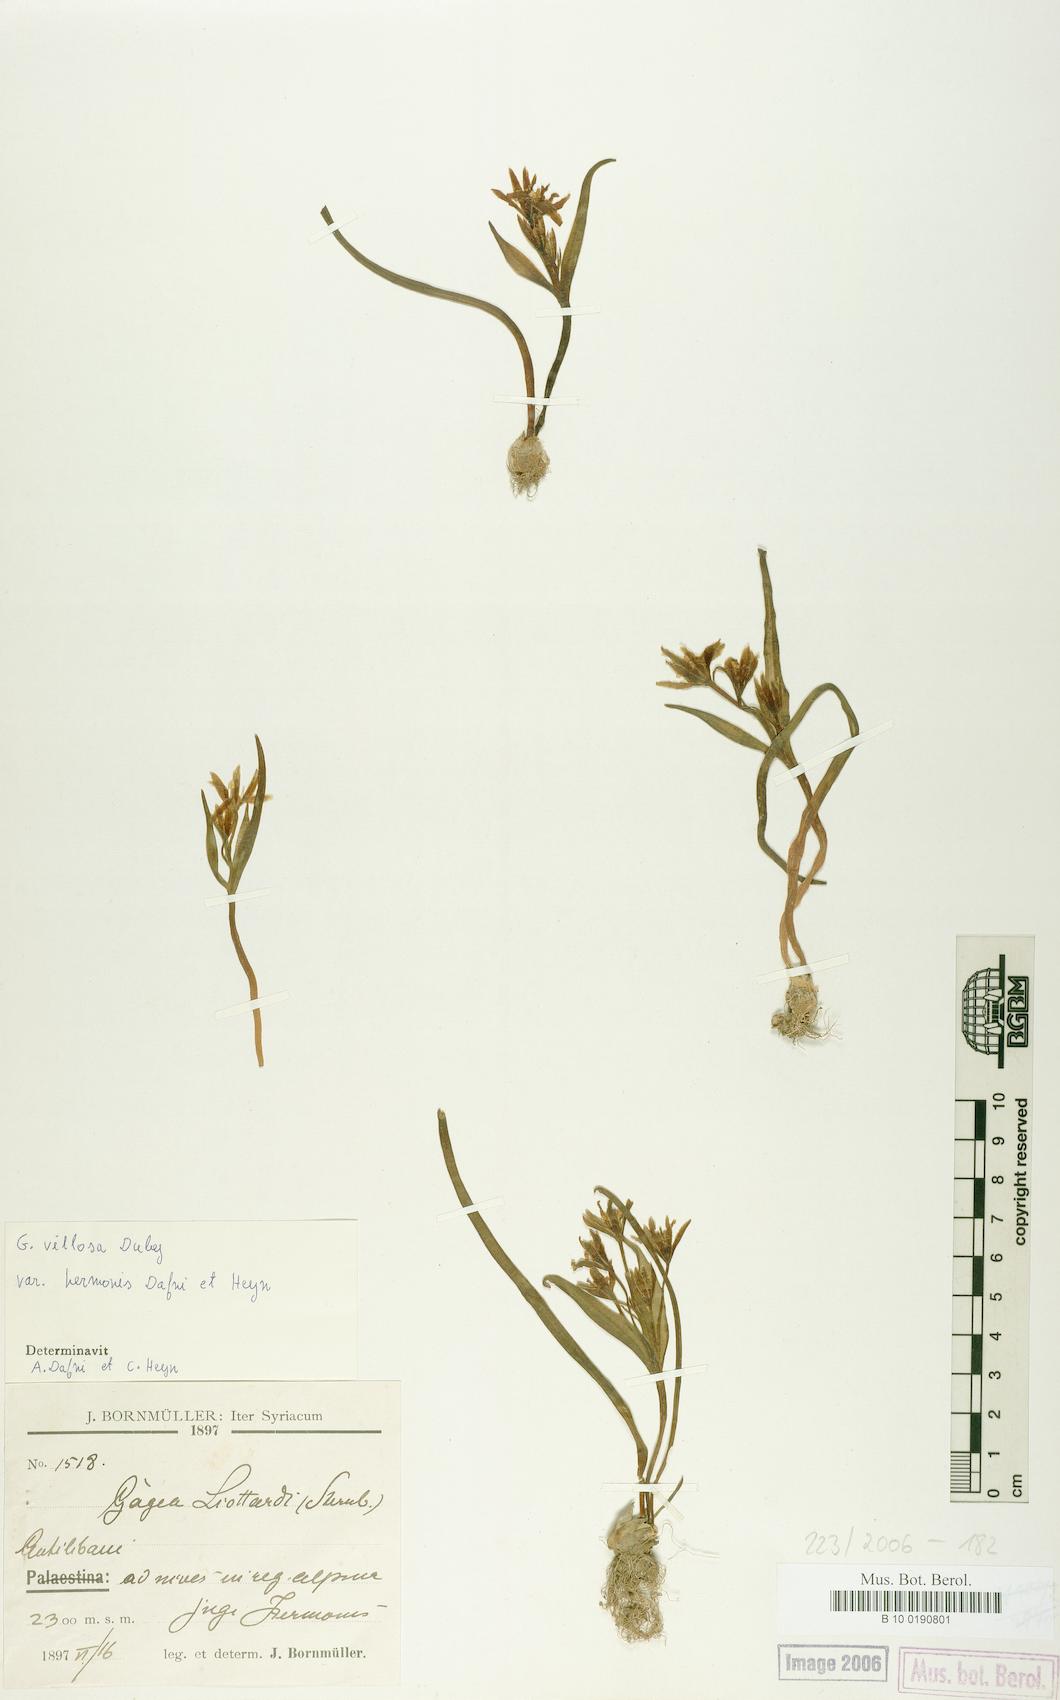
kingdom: Plantae
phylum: Tracheophyta
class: Liliopsida
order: Liliales
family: Liliaceae
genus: Gagea
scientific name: Gagea villosa
